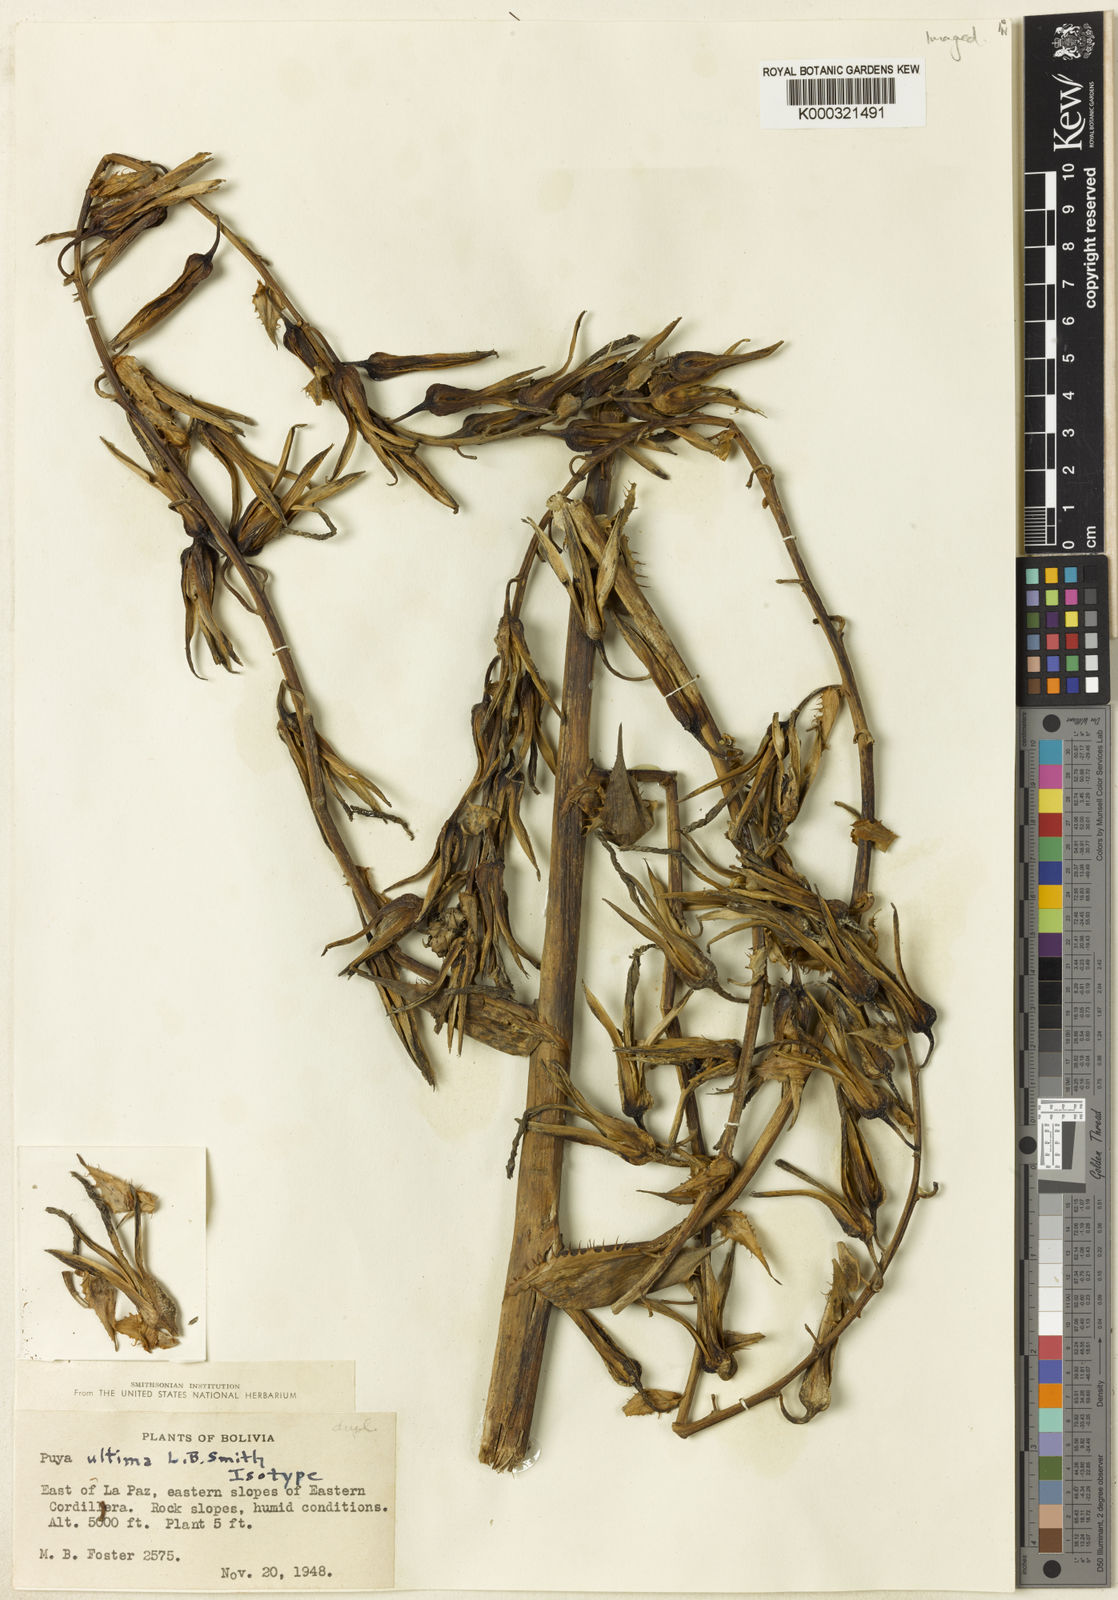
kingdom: Plantae
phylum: Tracheophyta
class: Liliopsida
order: Poales
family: Bromeliaceae
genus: Puya
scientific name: Puya ultima
